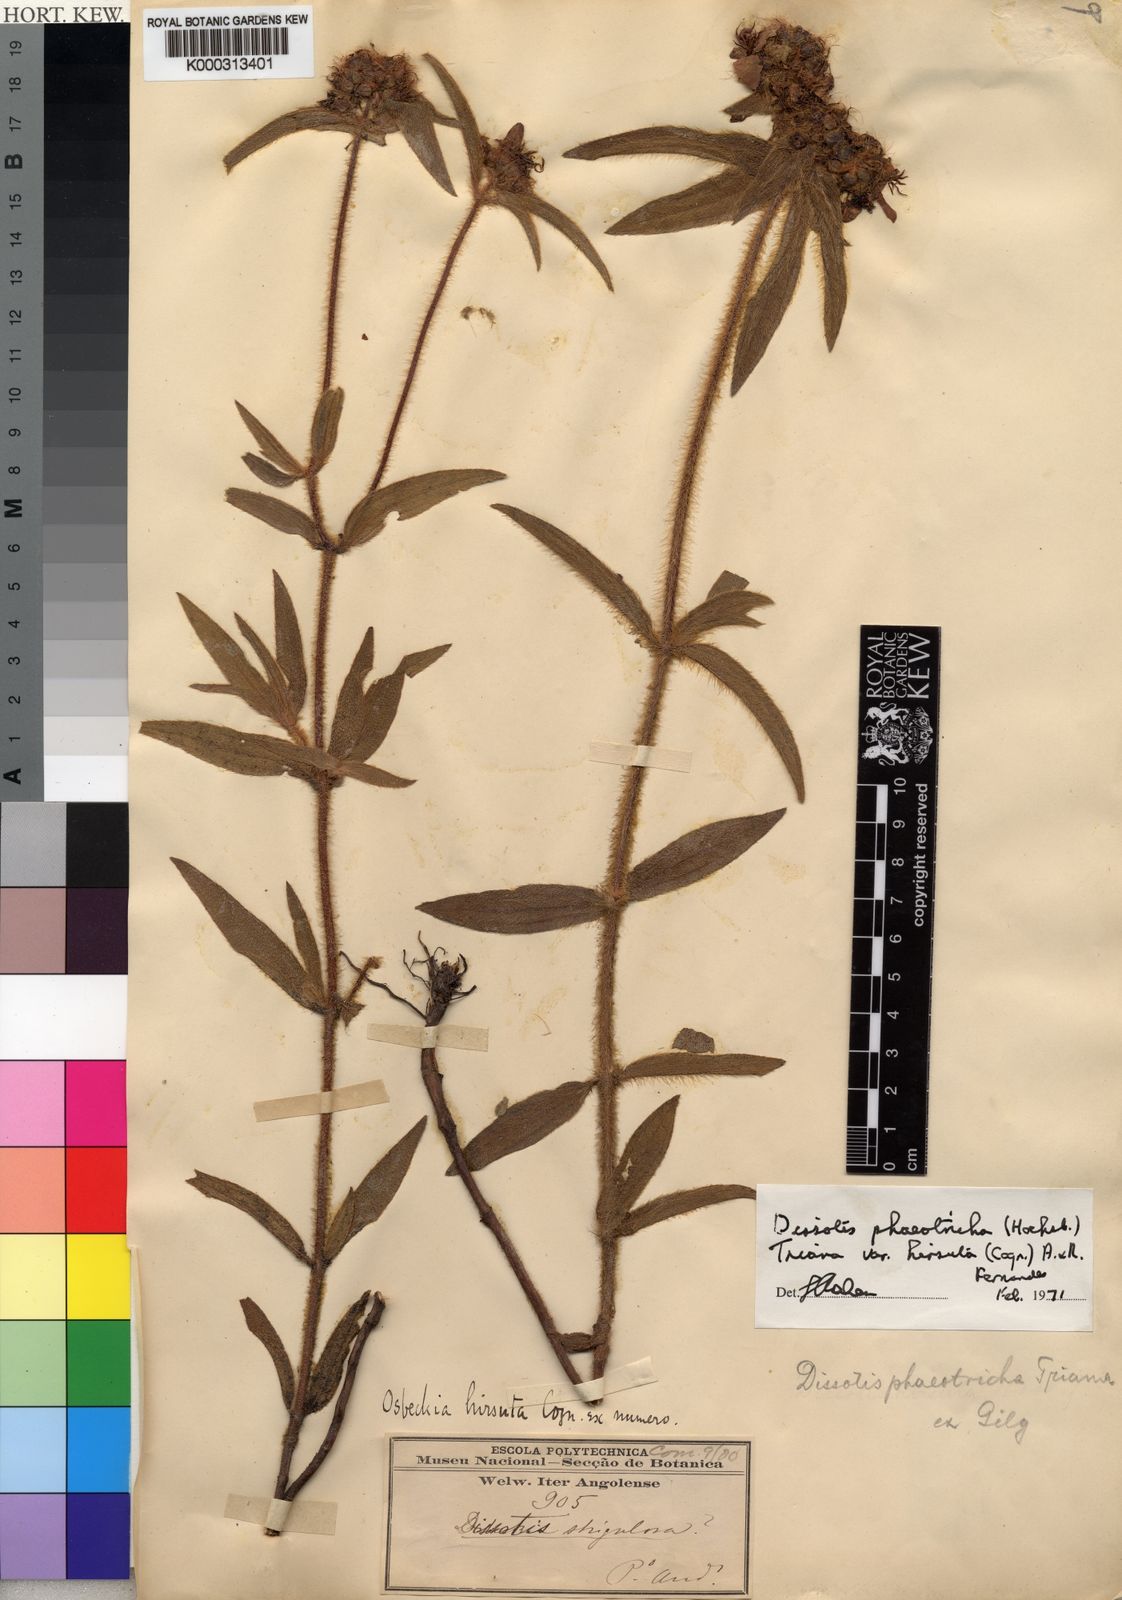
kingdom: Plantae
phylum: Tracheophyta
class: Magnoliopsida
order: Myrtales
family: Melastomataceae
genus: Antherotoma
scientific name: Antherotoma
